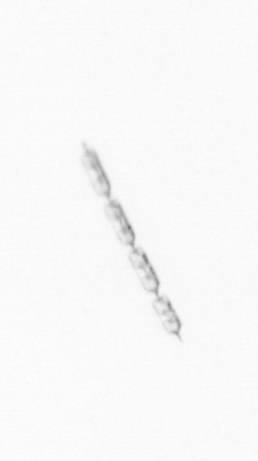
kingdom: Chromista
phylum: Ochrophyta
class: Bacillariophyceae
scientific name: Bacillariophyceae
